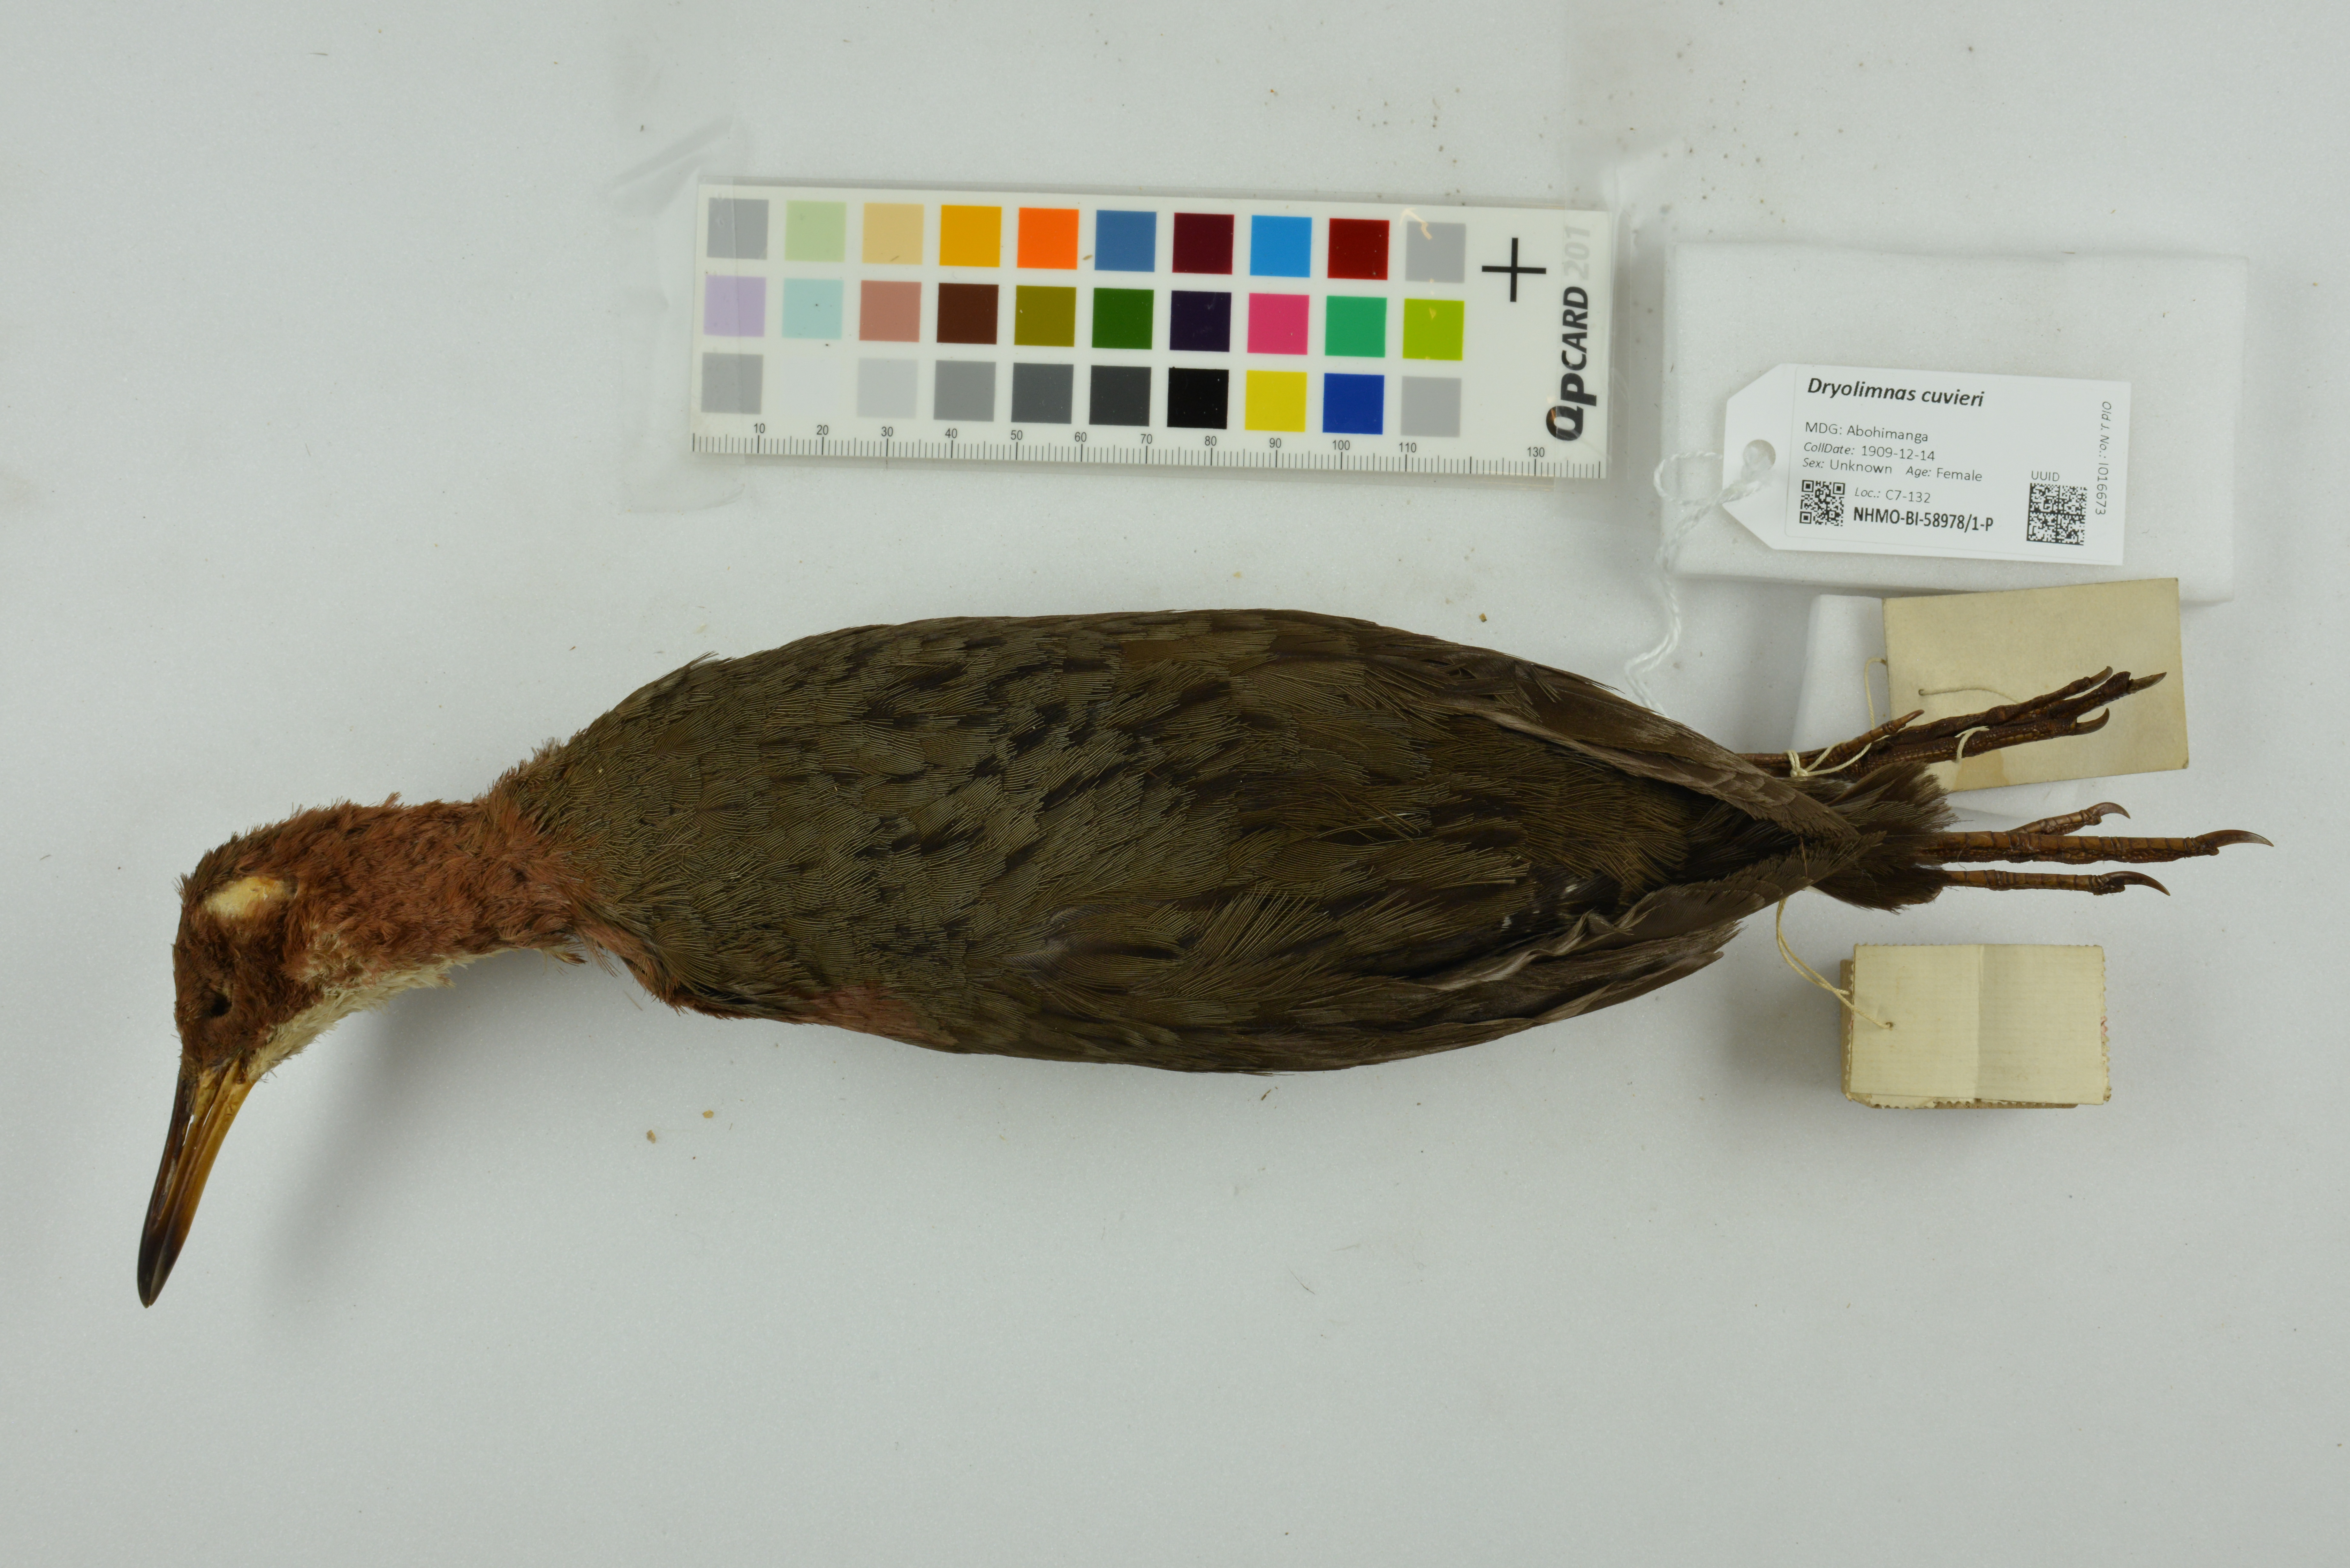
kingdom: Animalia
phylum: Chordata
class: Aves
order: Gruiformes
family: Rallidae
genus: Dryolimnas
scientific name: Dryolimnas cuvieri
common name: White-throated rail
